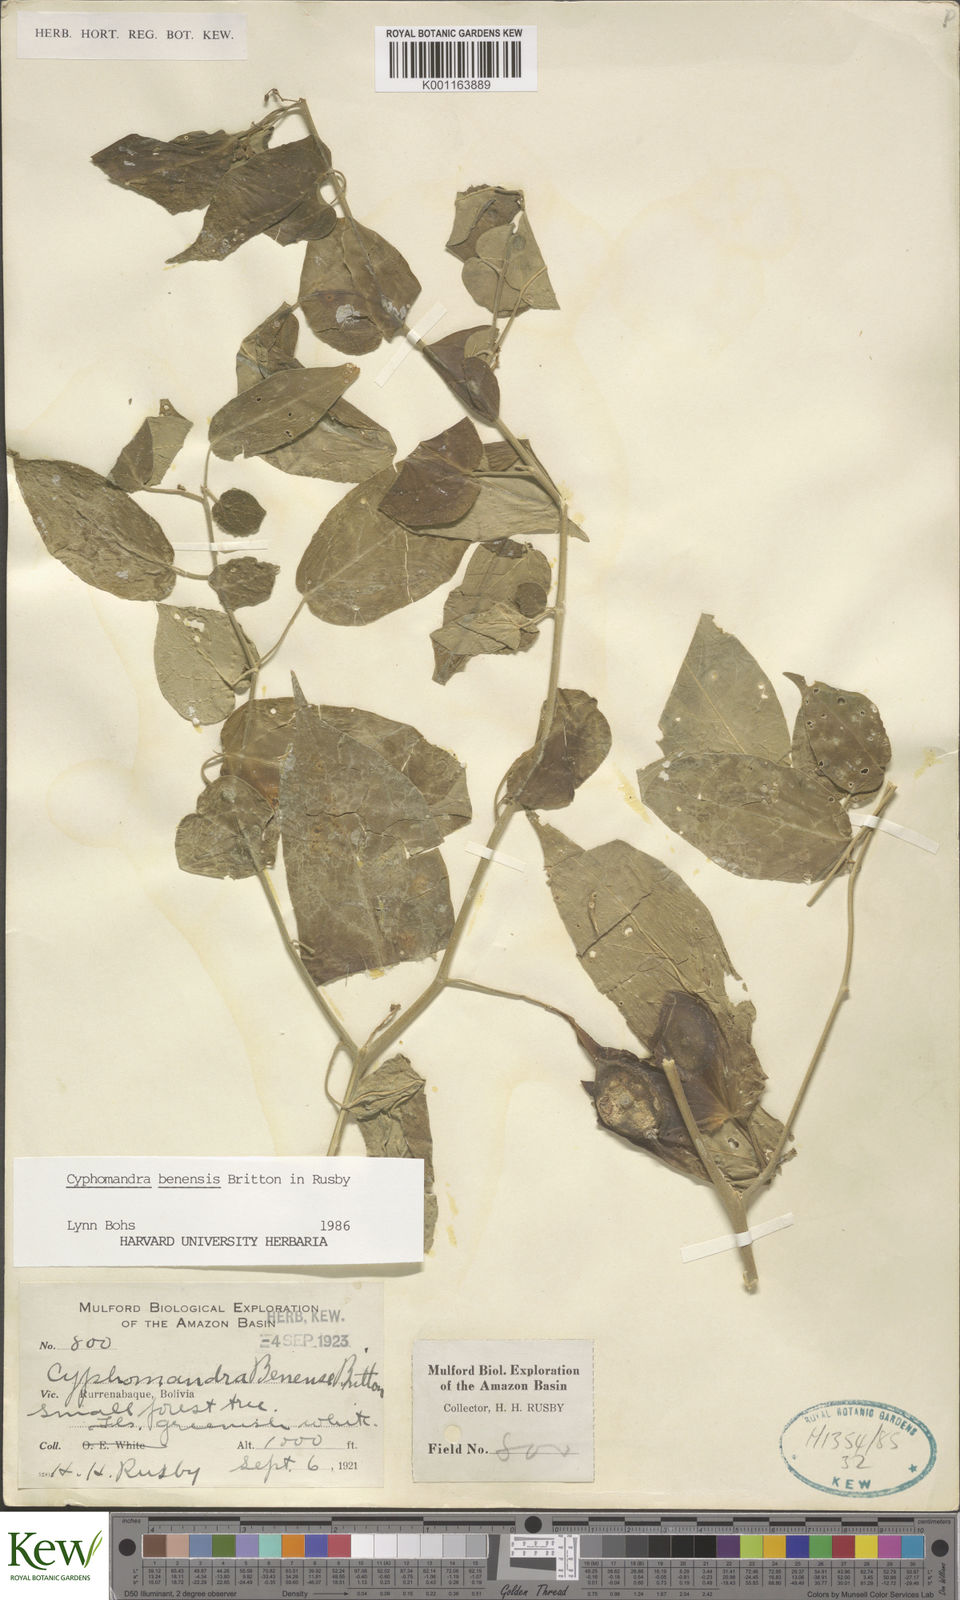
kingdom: Plantae
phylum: Tracheophyta
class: Magnoliopsida
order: Solanales
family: Solanaceae
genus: Solanum
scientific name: Solanum exiguum
